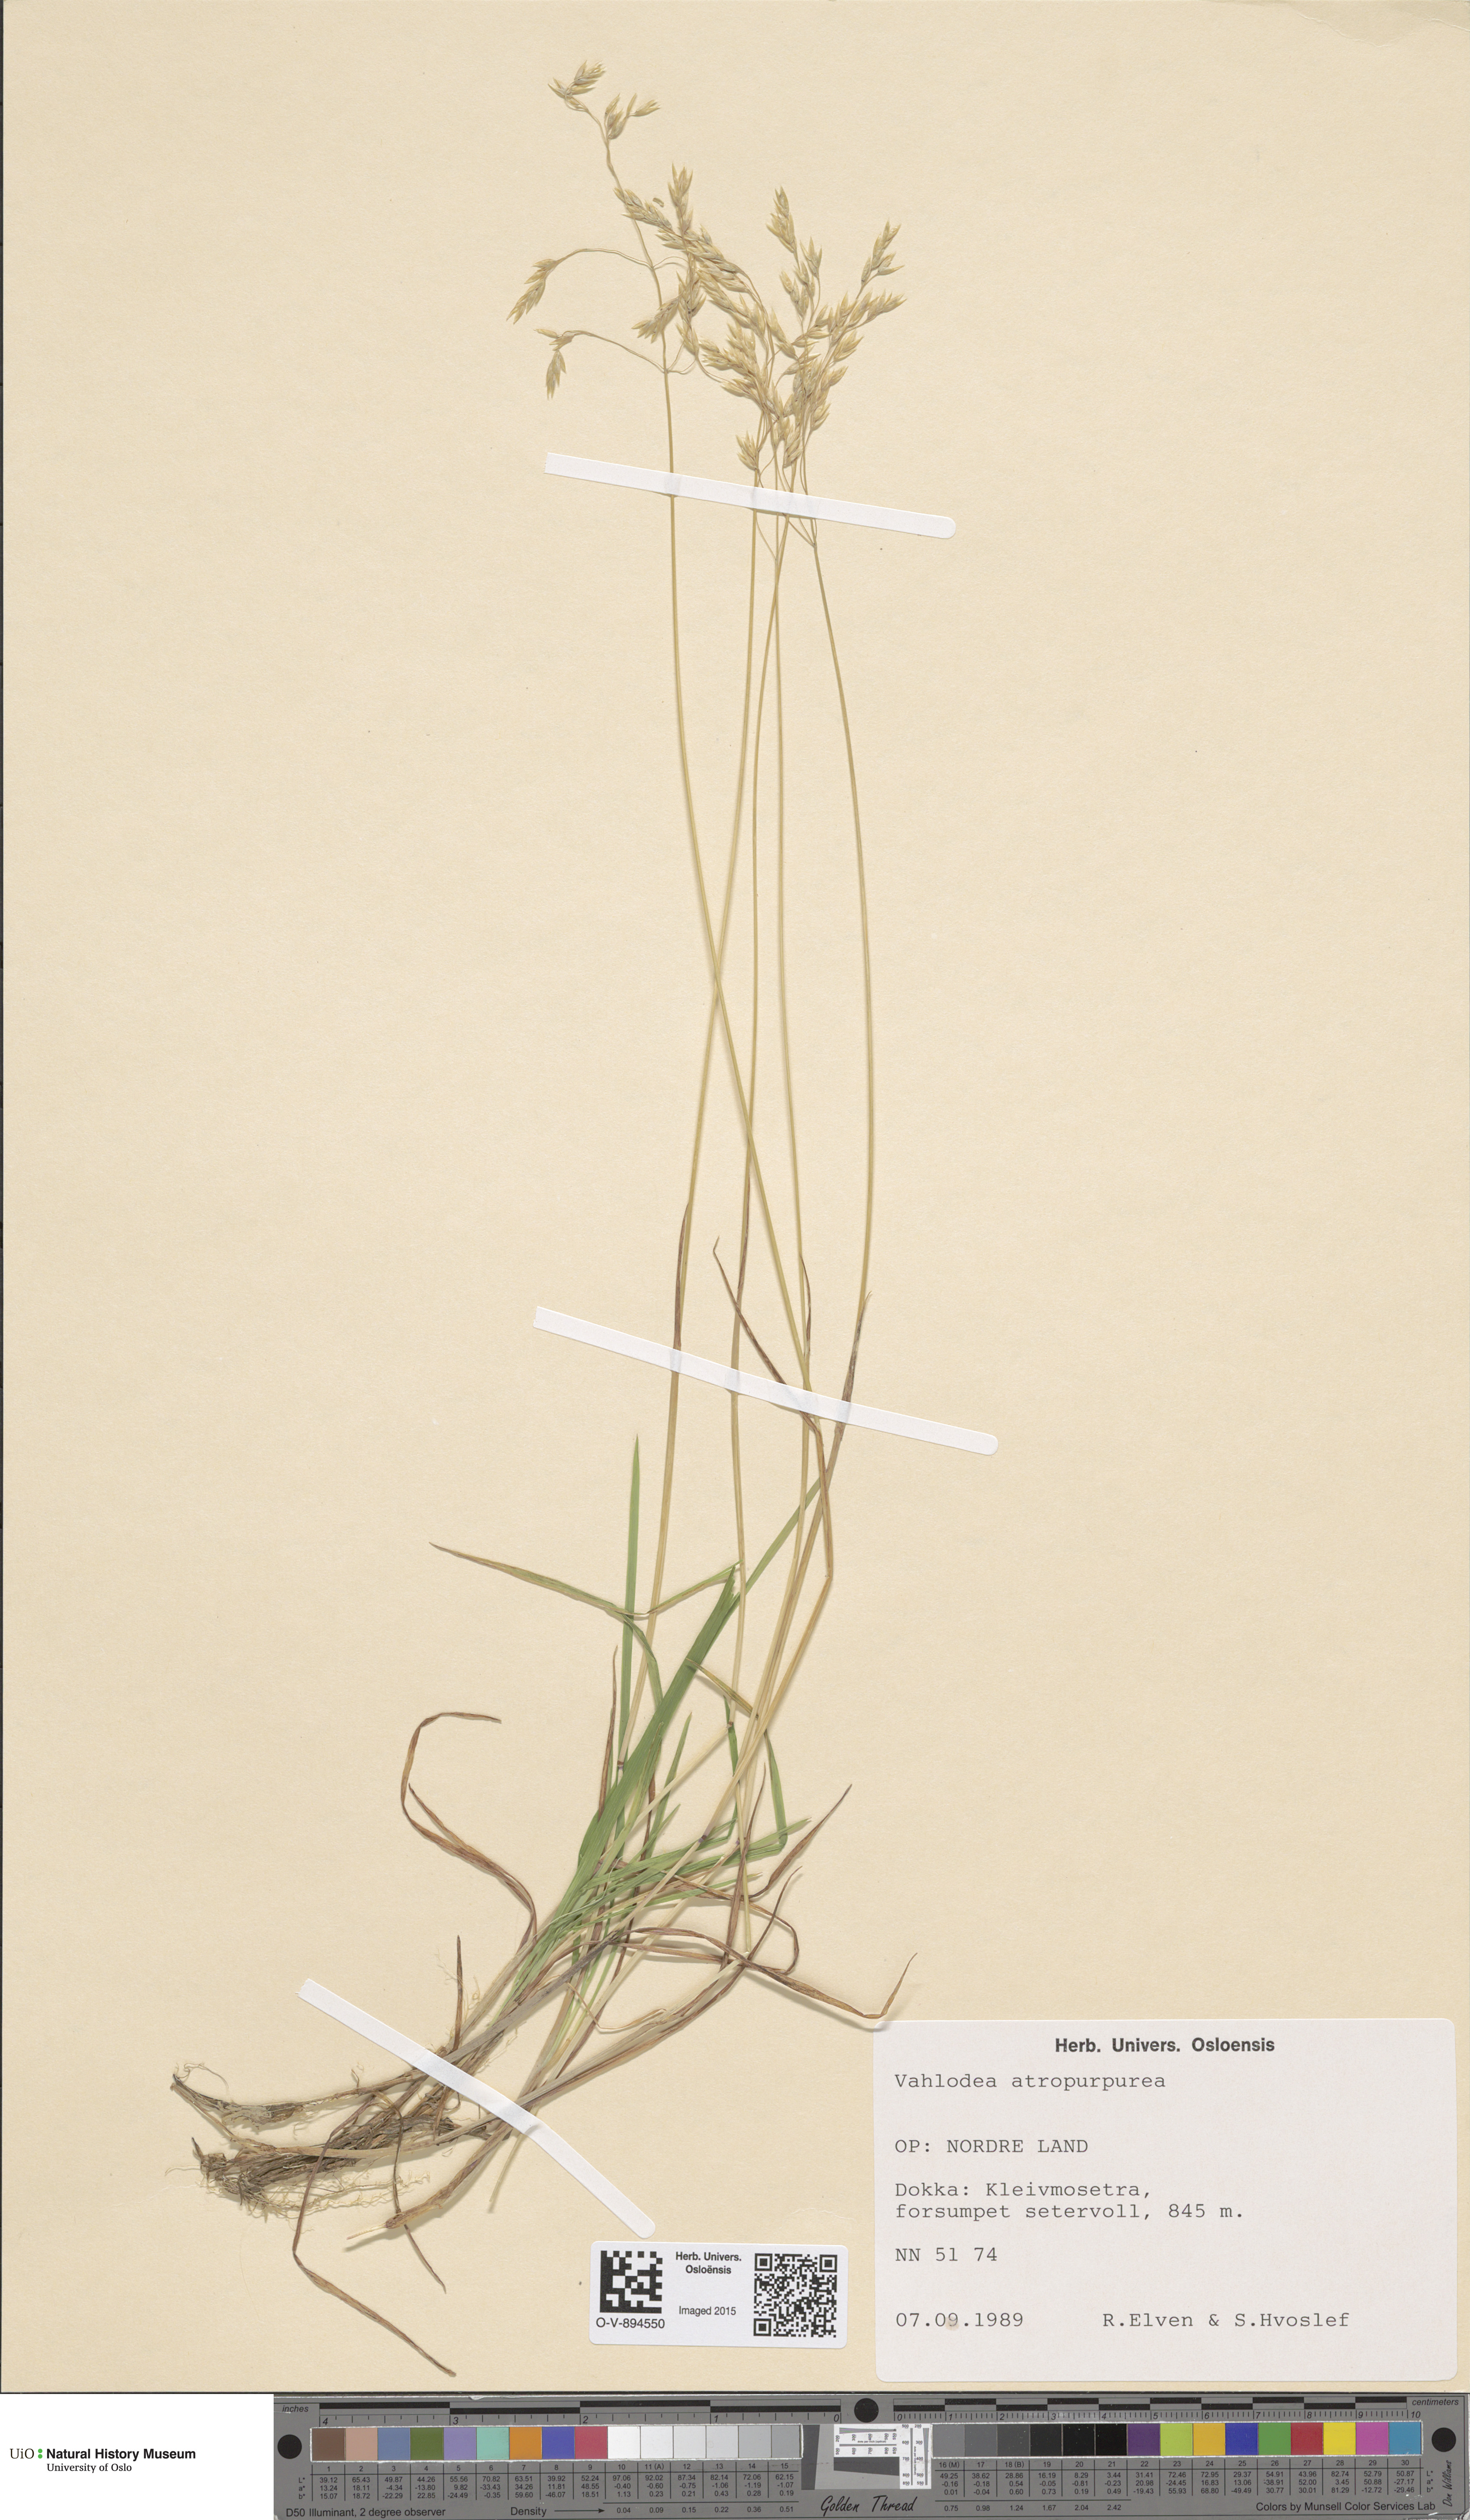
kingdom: Plantae
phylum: Tracheophyta
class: Liliopsida
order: Poales
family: Poaceae
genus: Vahlodea
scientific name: Vahlodea atropurpurea
